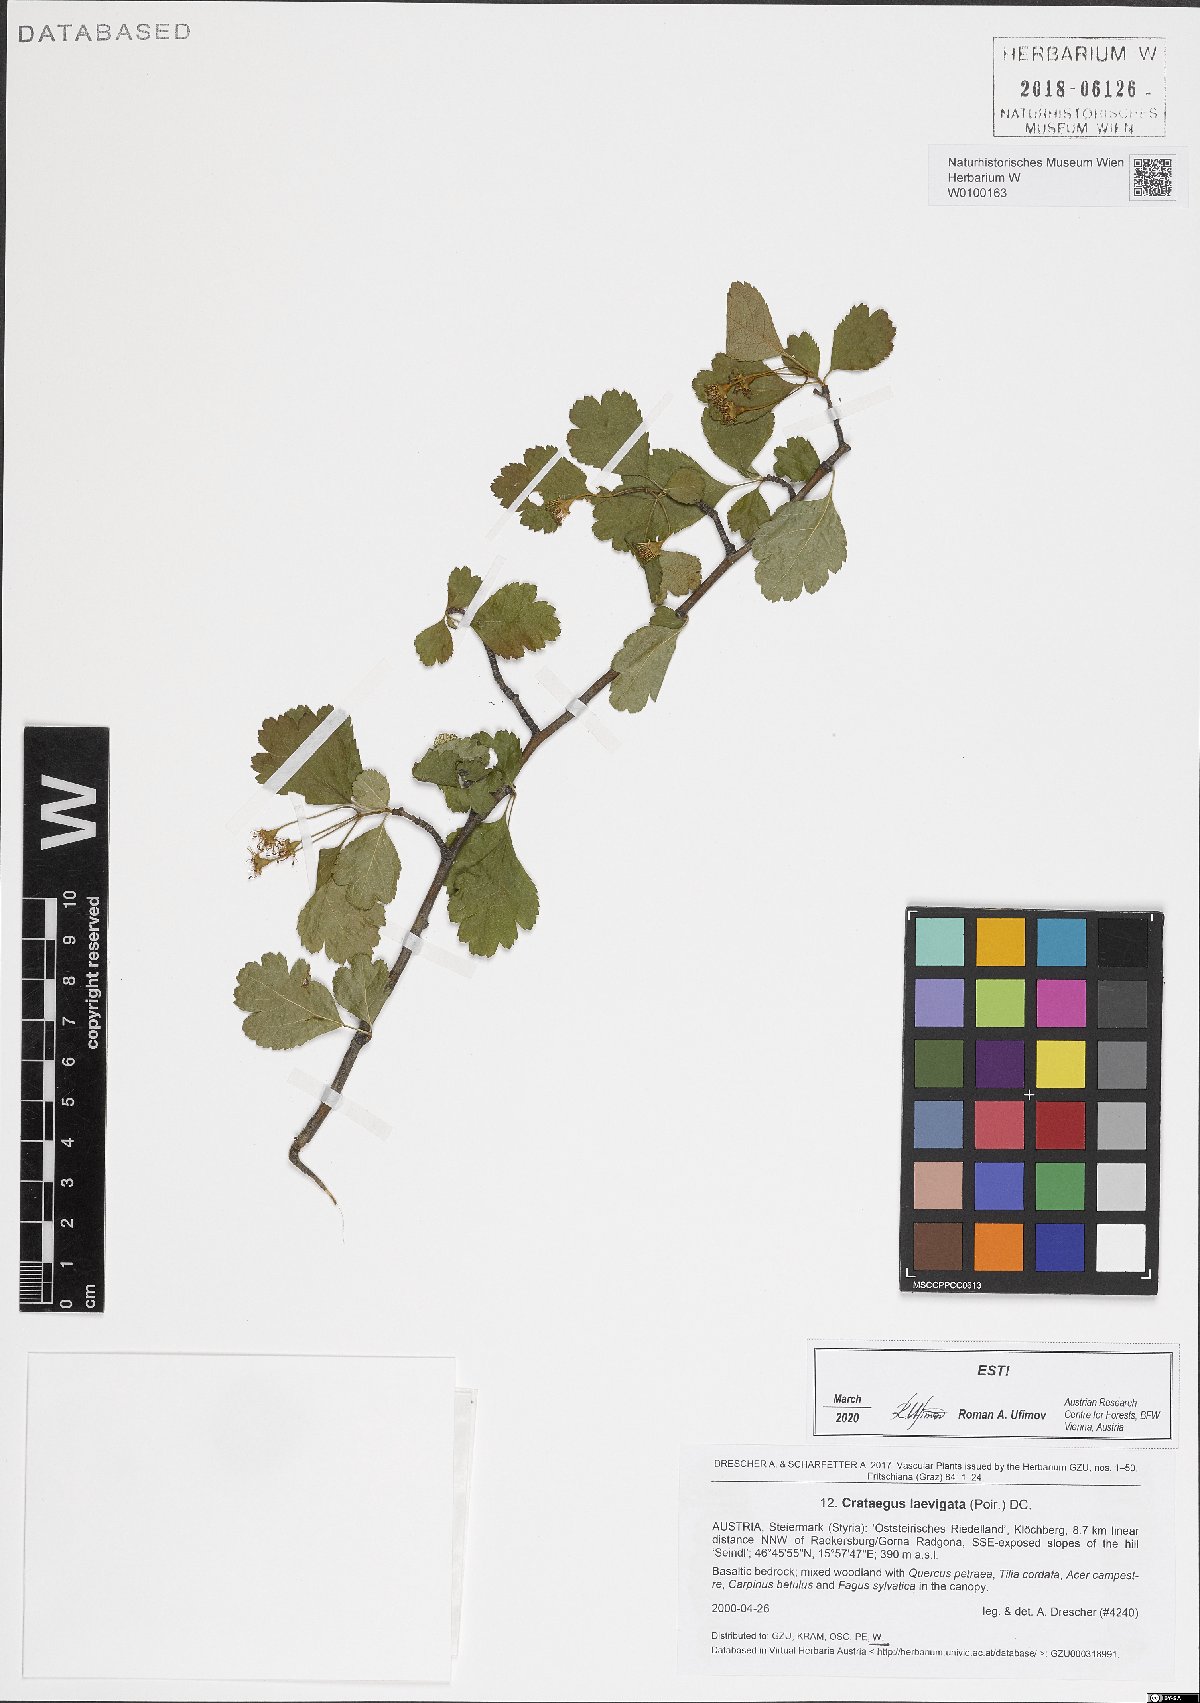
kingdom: Plantae
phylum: Tracheophyta
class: Magnoliopsida
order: Rosales
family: Rosaceae
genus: Crataegus
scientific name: Crataegus laevigata
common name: Midland hawthorn
